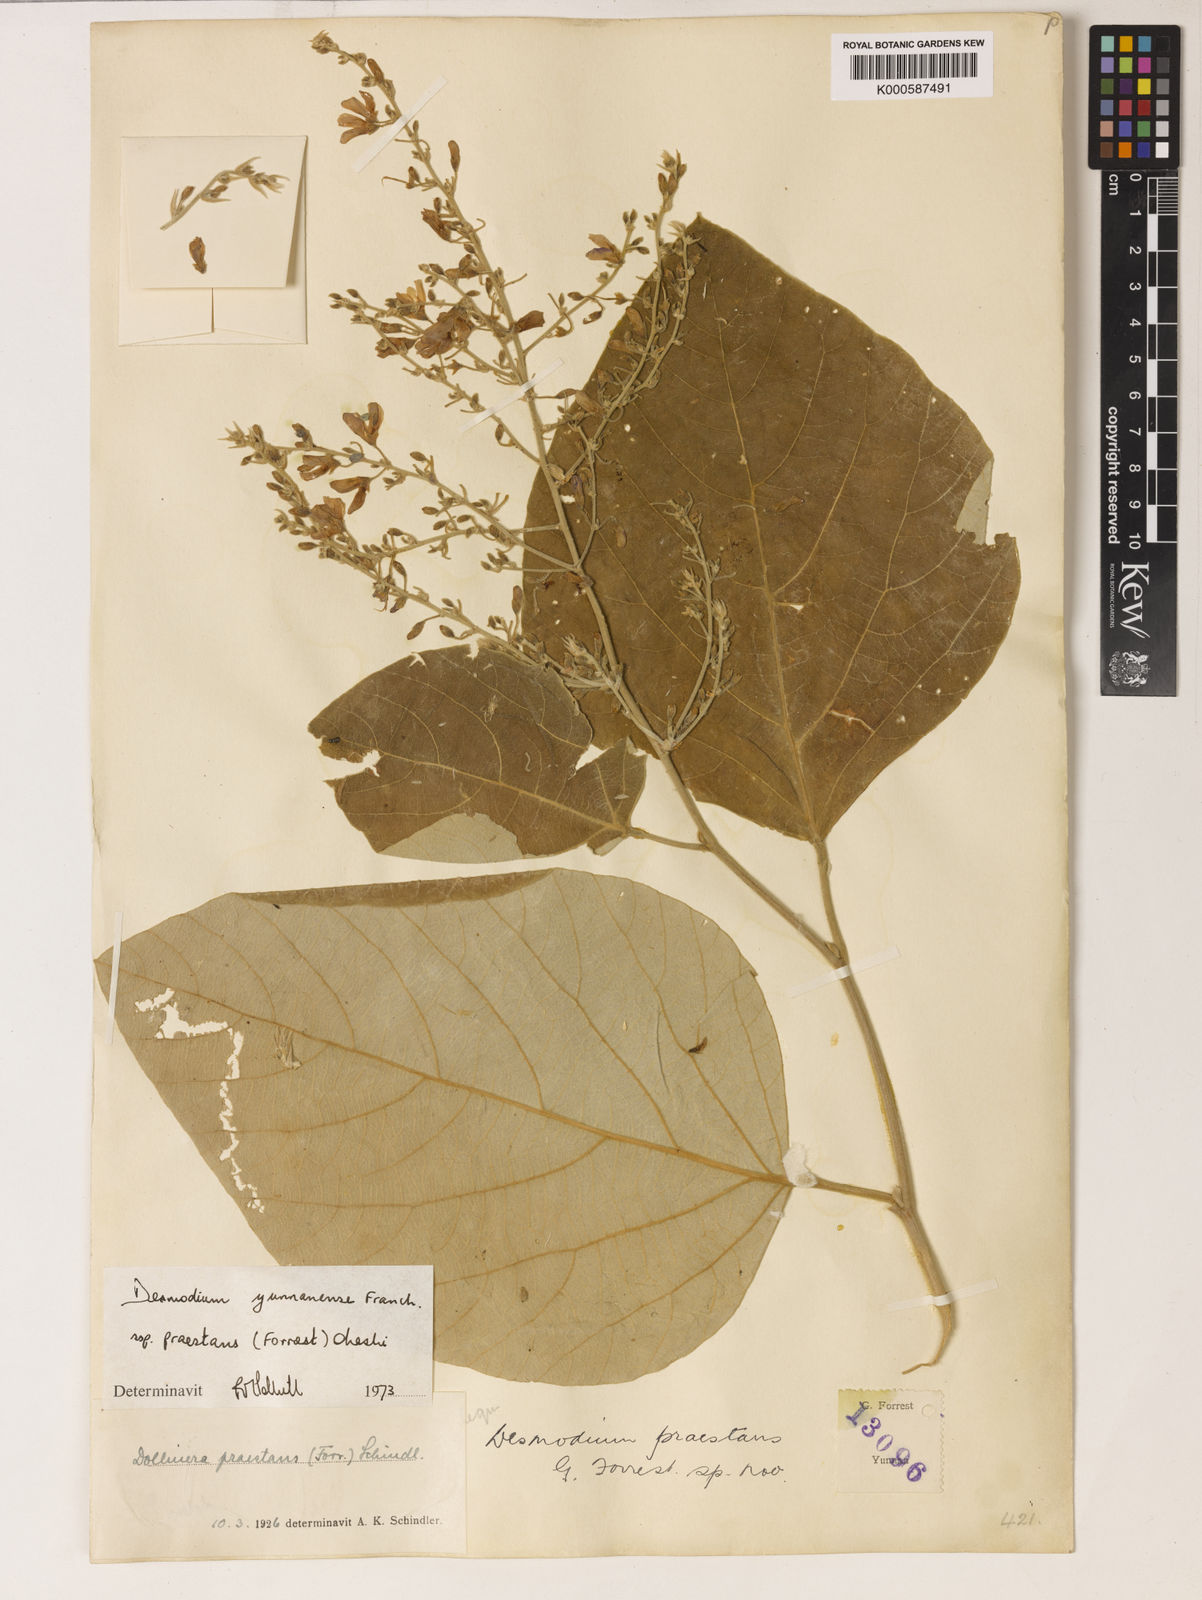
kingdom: Plantae
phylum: Tracheophyta
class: Magnoliopsida
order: Fabales
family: Fabaceae
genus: Sunhangia
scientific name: Sunhangia yunnanensis
